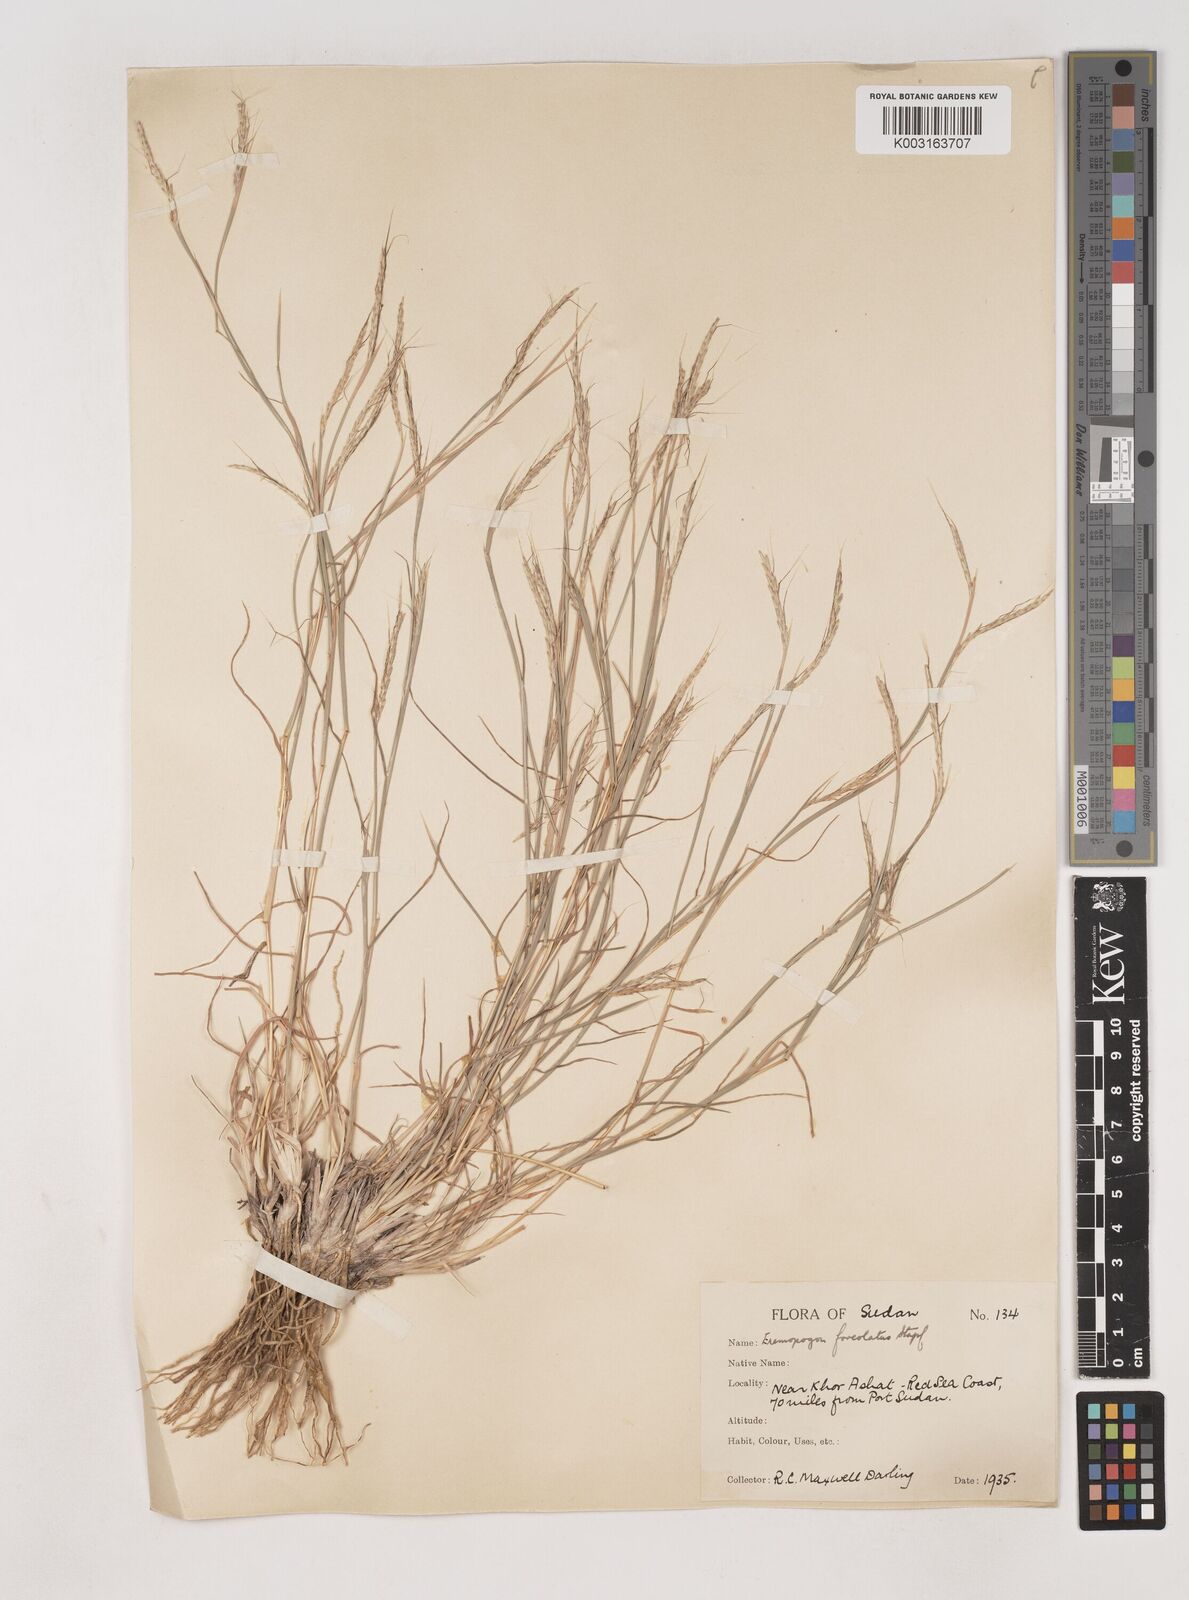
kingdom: Plantae
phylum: Tracheophyta
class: Liliopsida
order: Poales
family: Poaceae
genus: Dichanthium
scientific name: Dichanthium foveolatum
